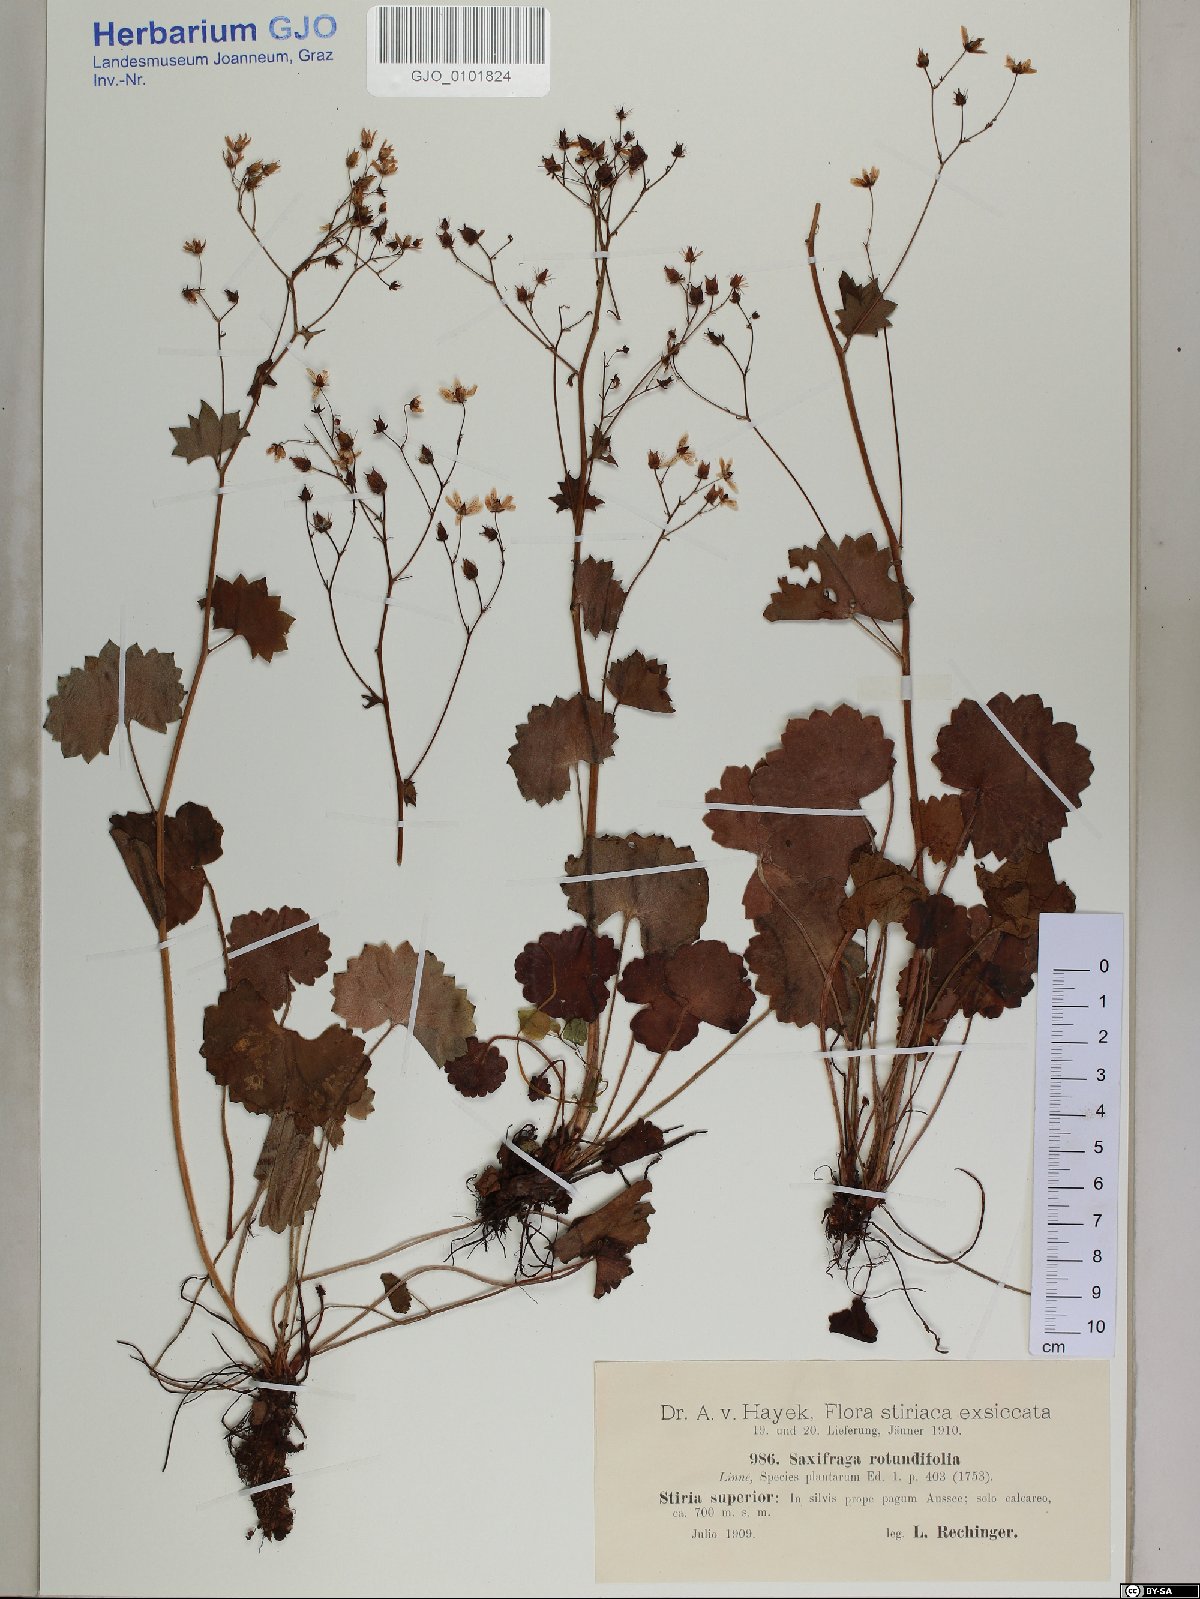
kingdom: Plantae
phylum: Tracheophyta
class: Magnoliopsida
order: Saxifragales
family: Saxifragaceae
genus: Saxifraga
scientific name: Saxifraga rotundifolia
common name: Round-leaved saxifrage
